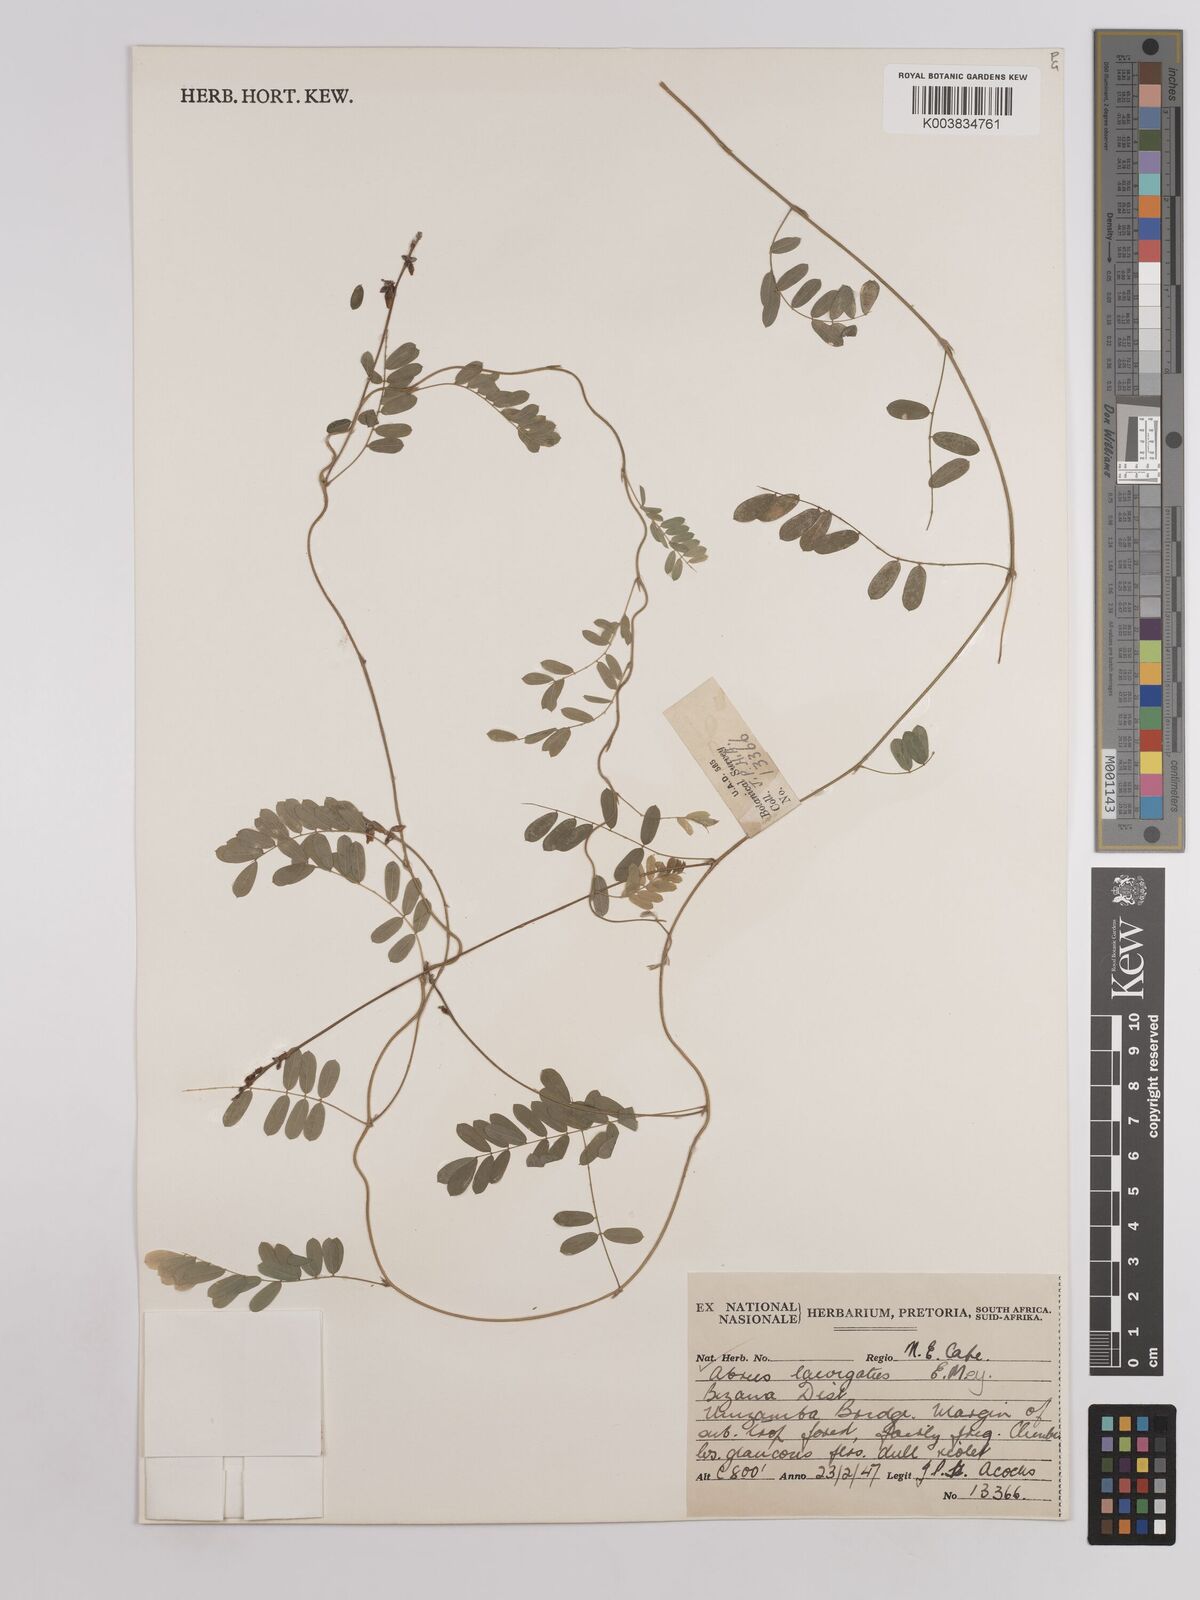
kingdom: Plantae
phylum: Tracheophyta
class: Magnoliopsida
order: Fabales
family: Fabaceae
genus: Abrus
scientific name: Abrus laevigatus
